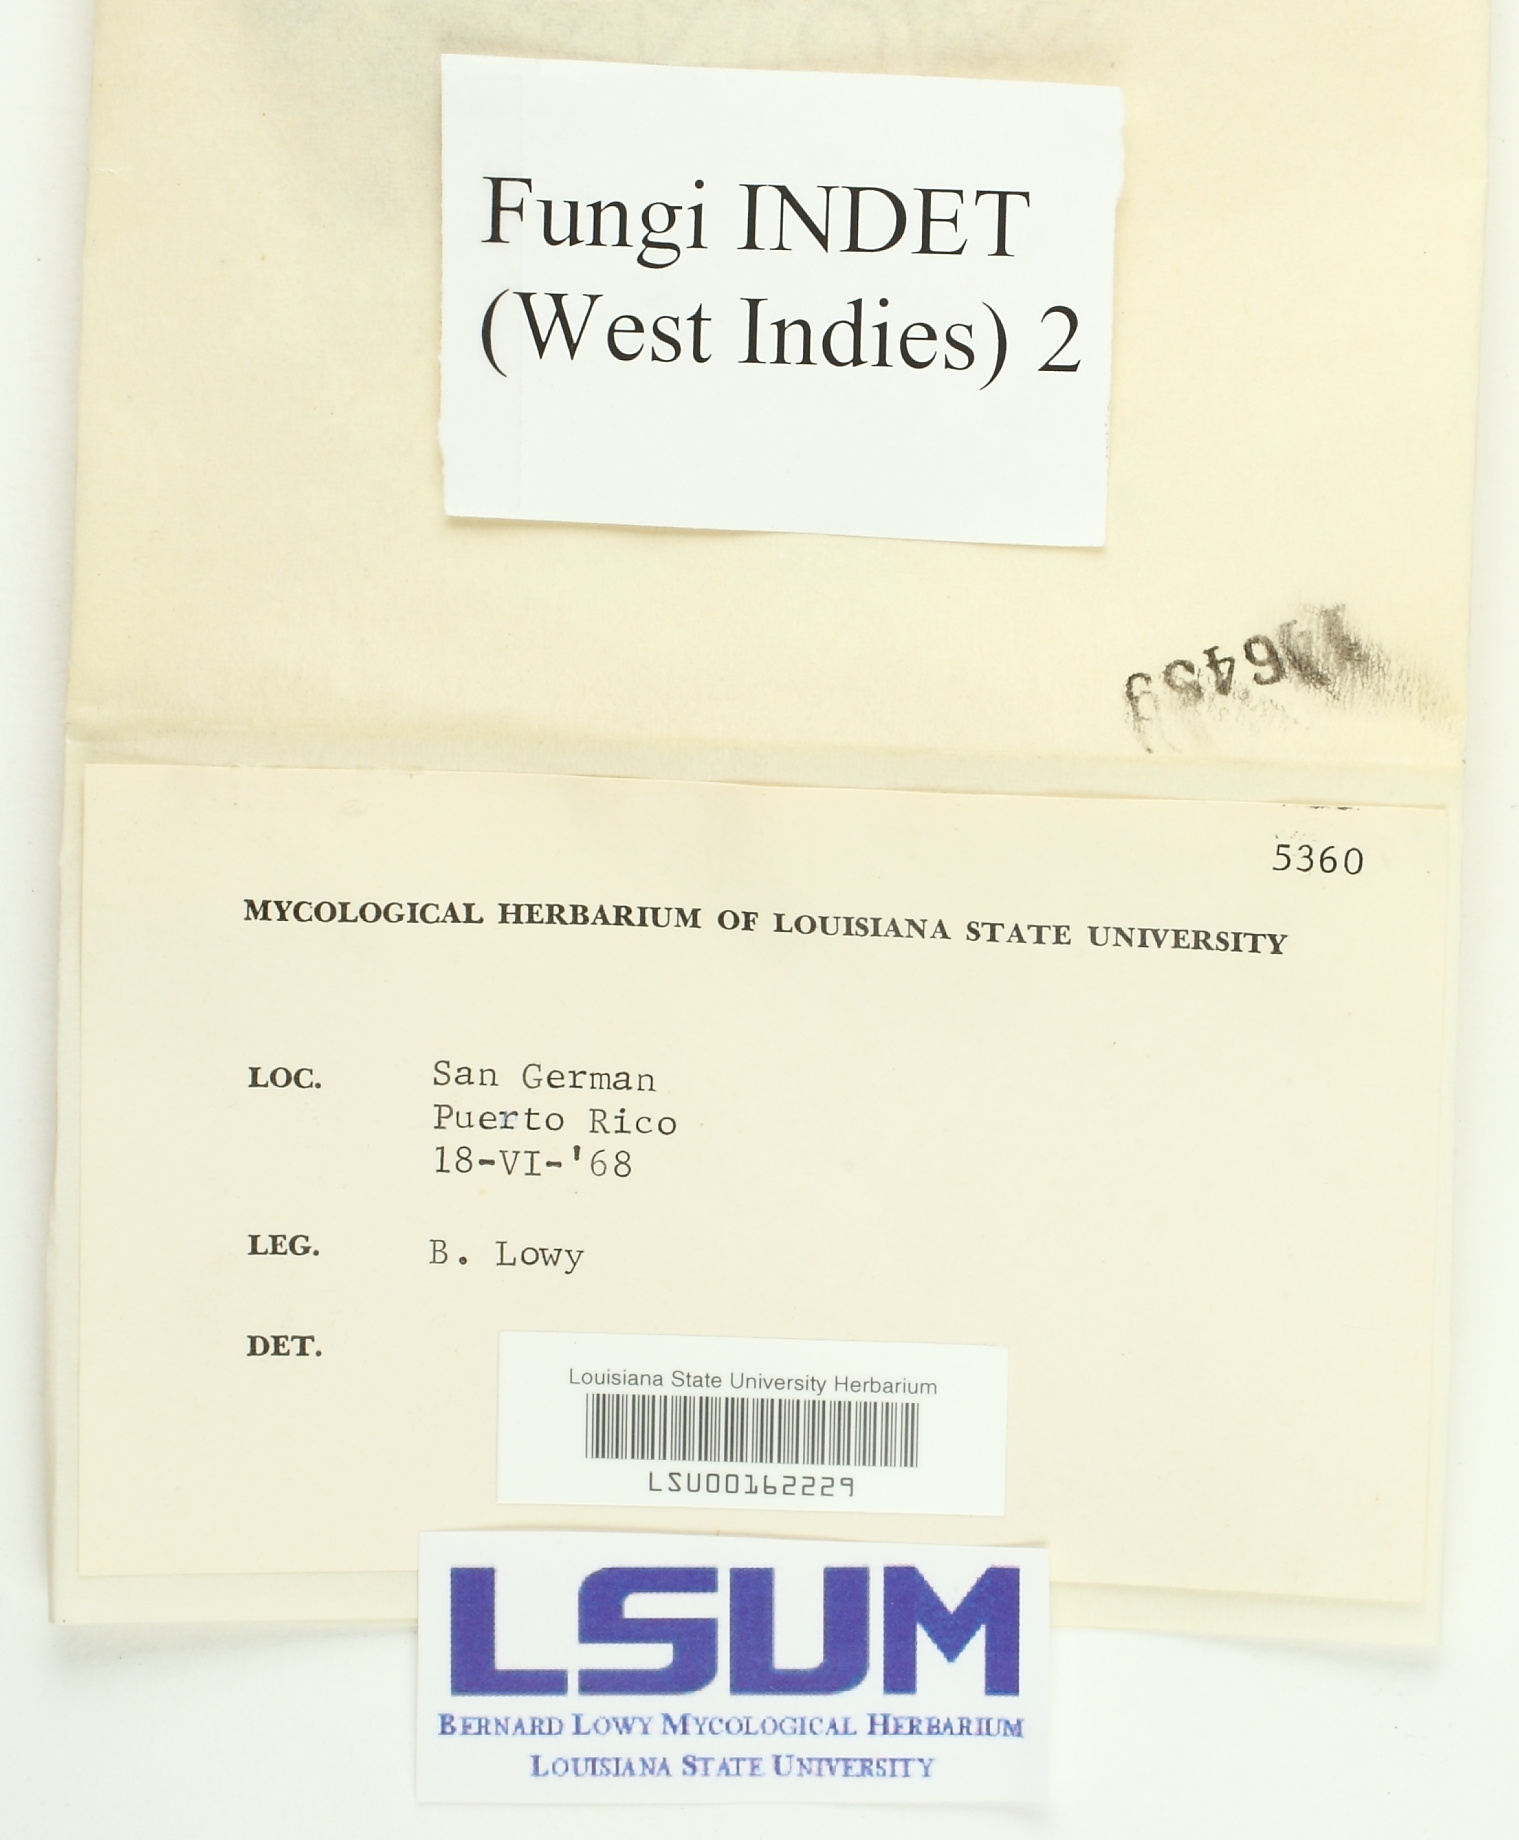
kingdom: Fungi
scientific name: Fungi
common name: Fungi
